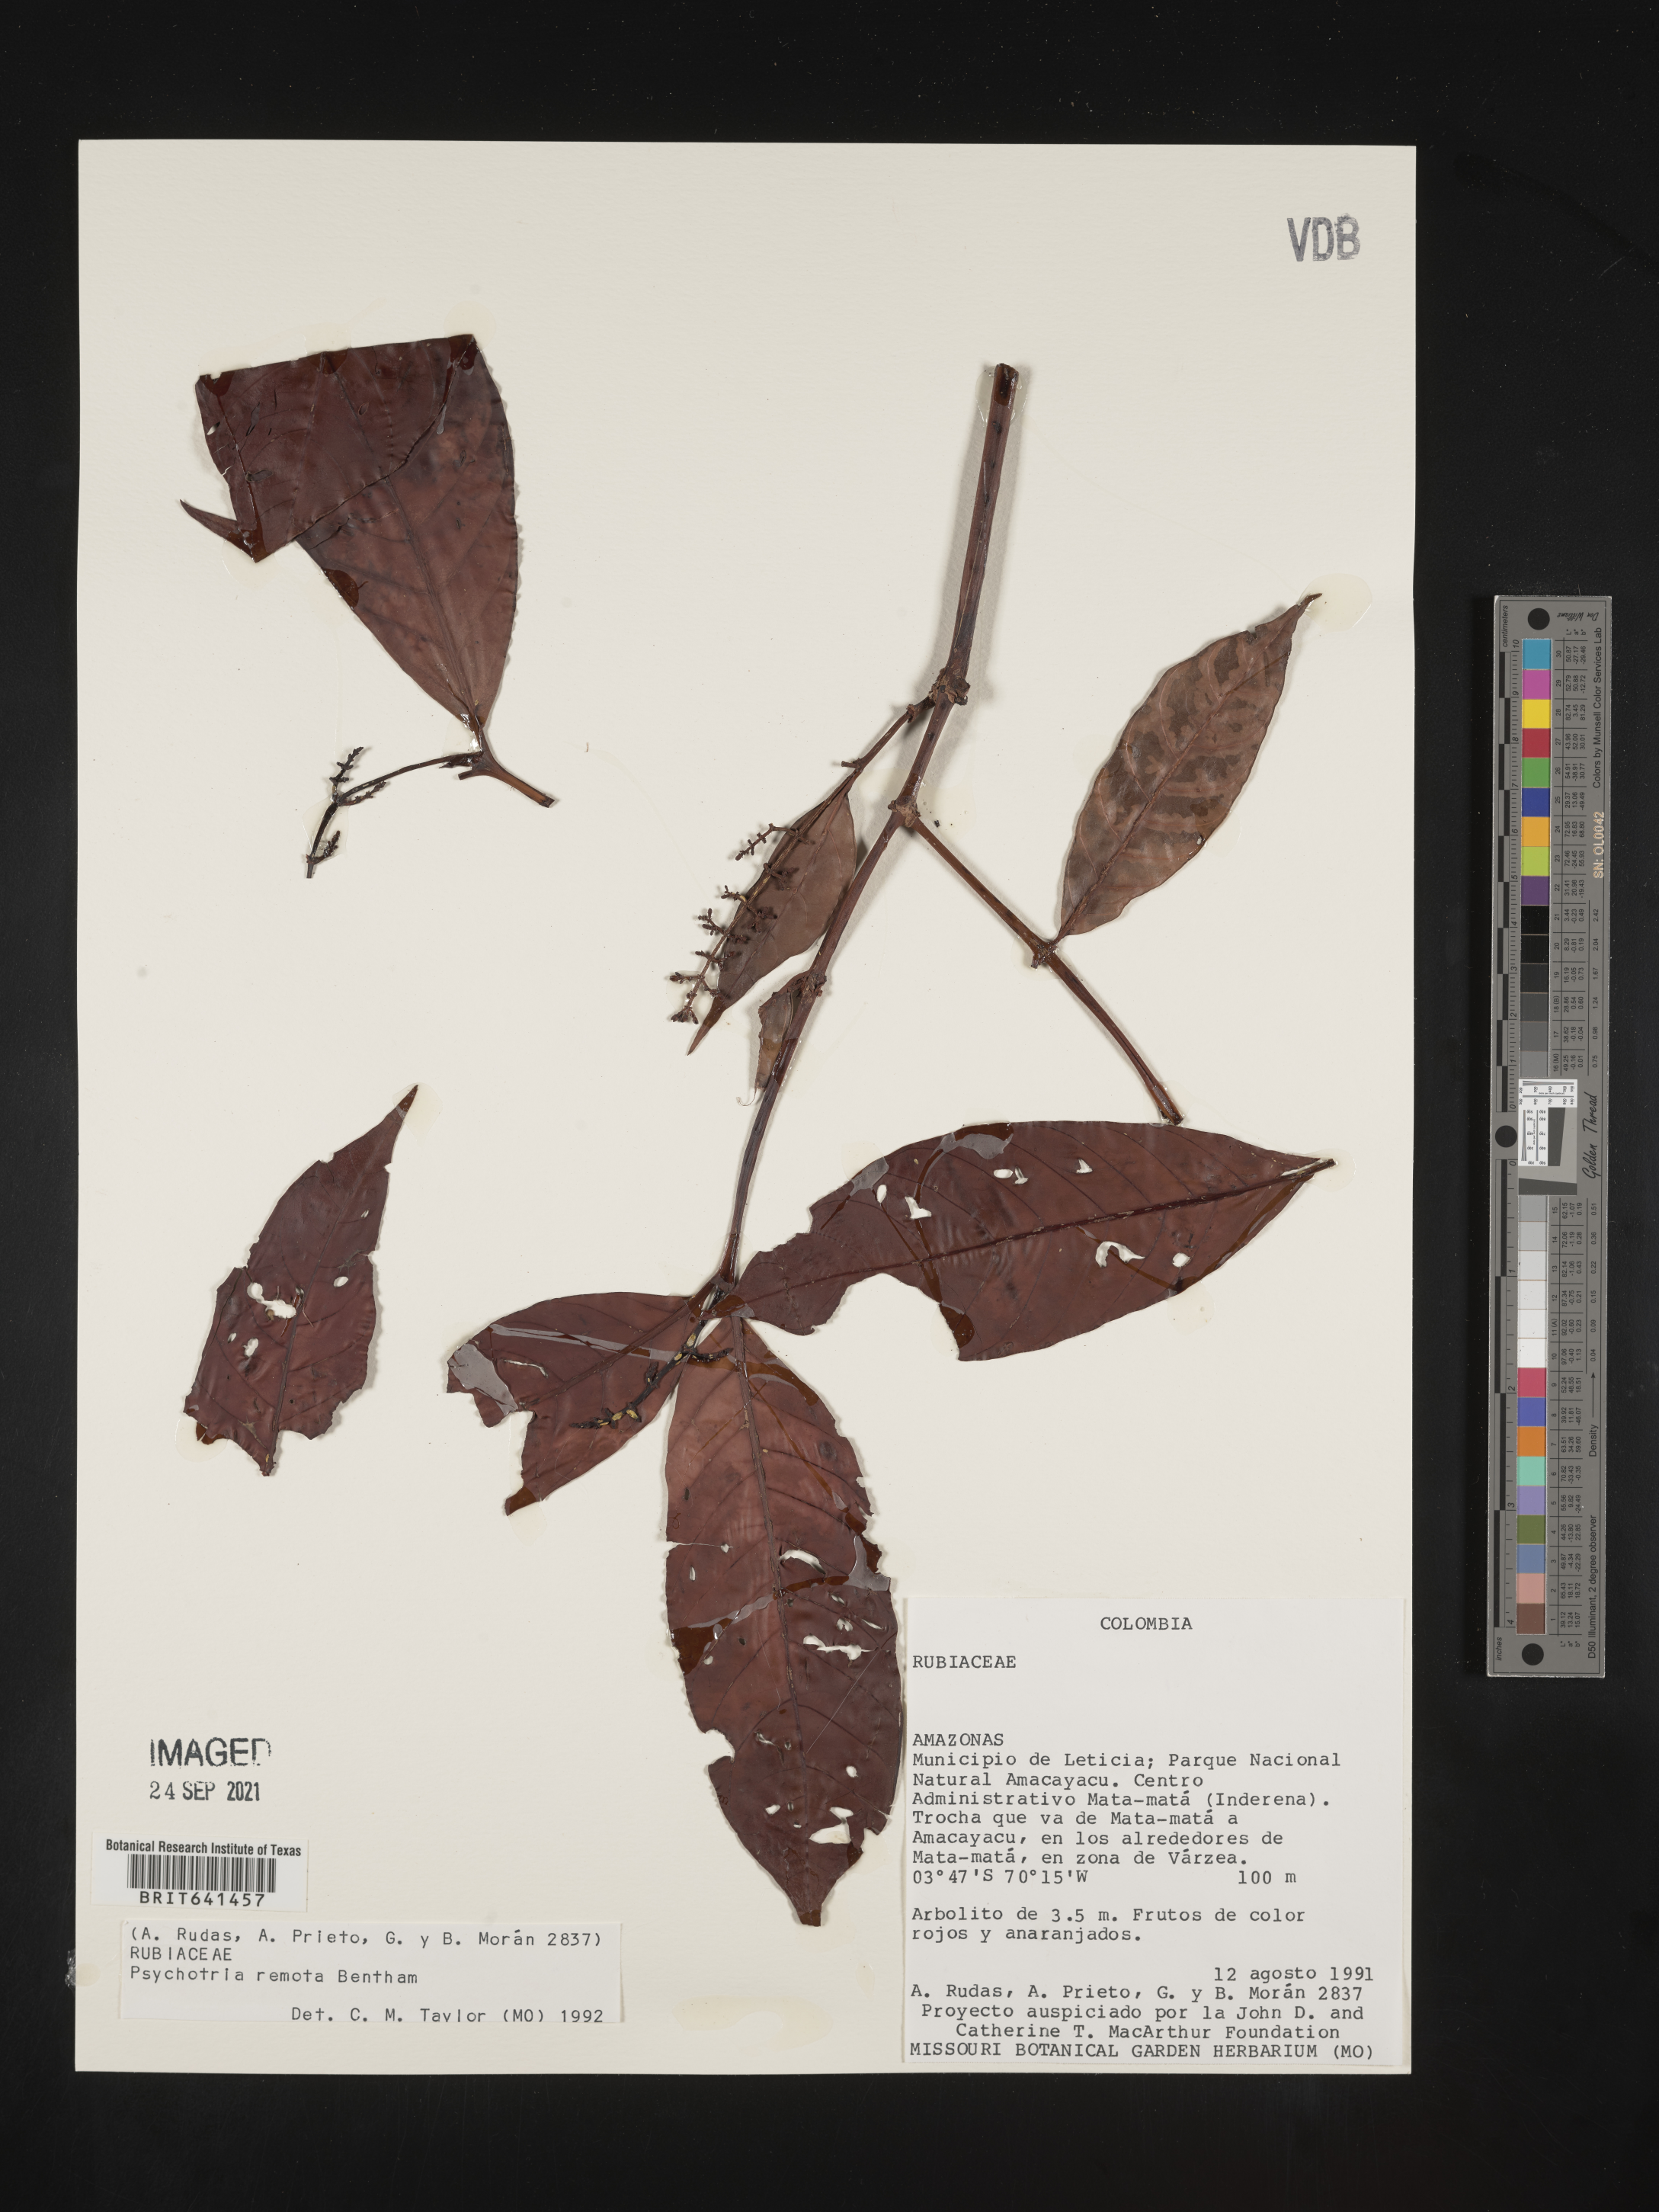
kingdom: Plantae
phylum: Tracheophyta
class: Magnoliopsida
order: Gentianales
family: Rubiaceae
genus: Psychotria
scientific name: Psychotria
